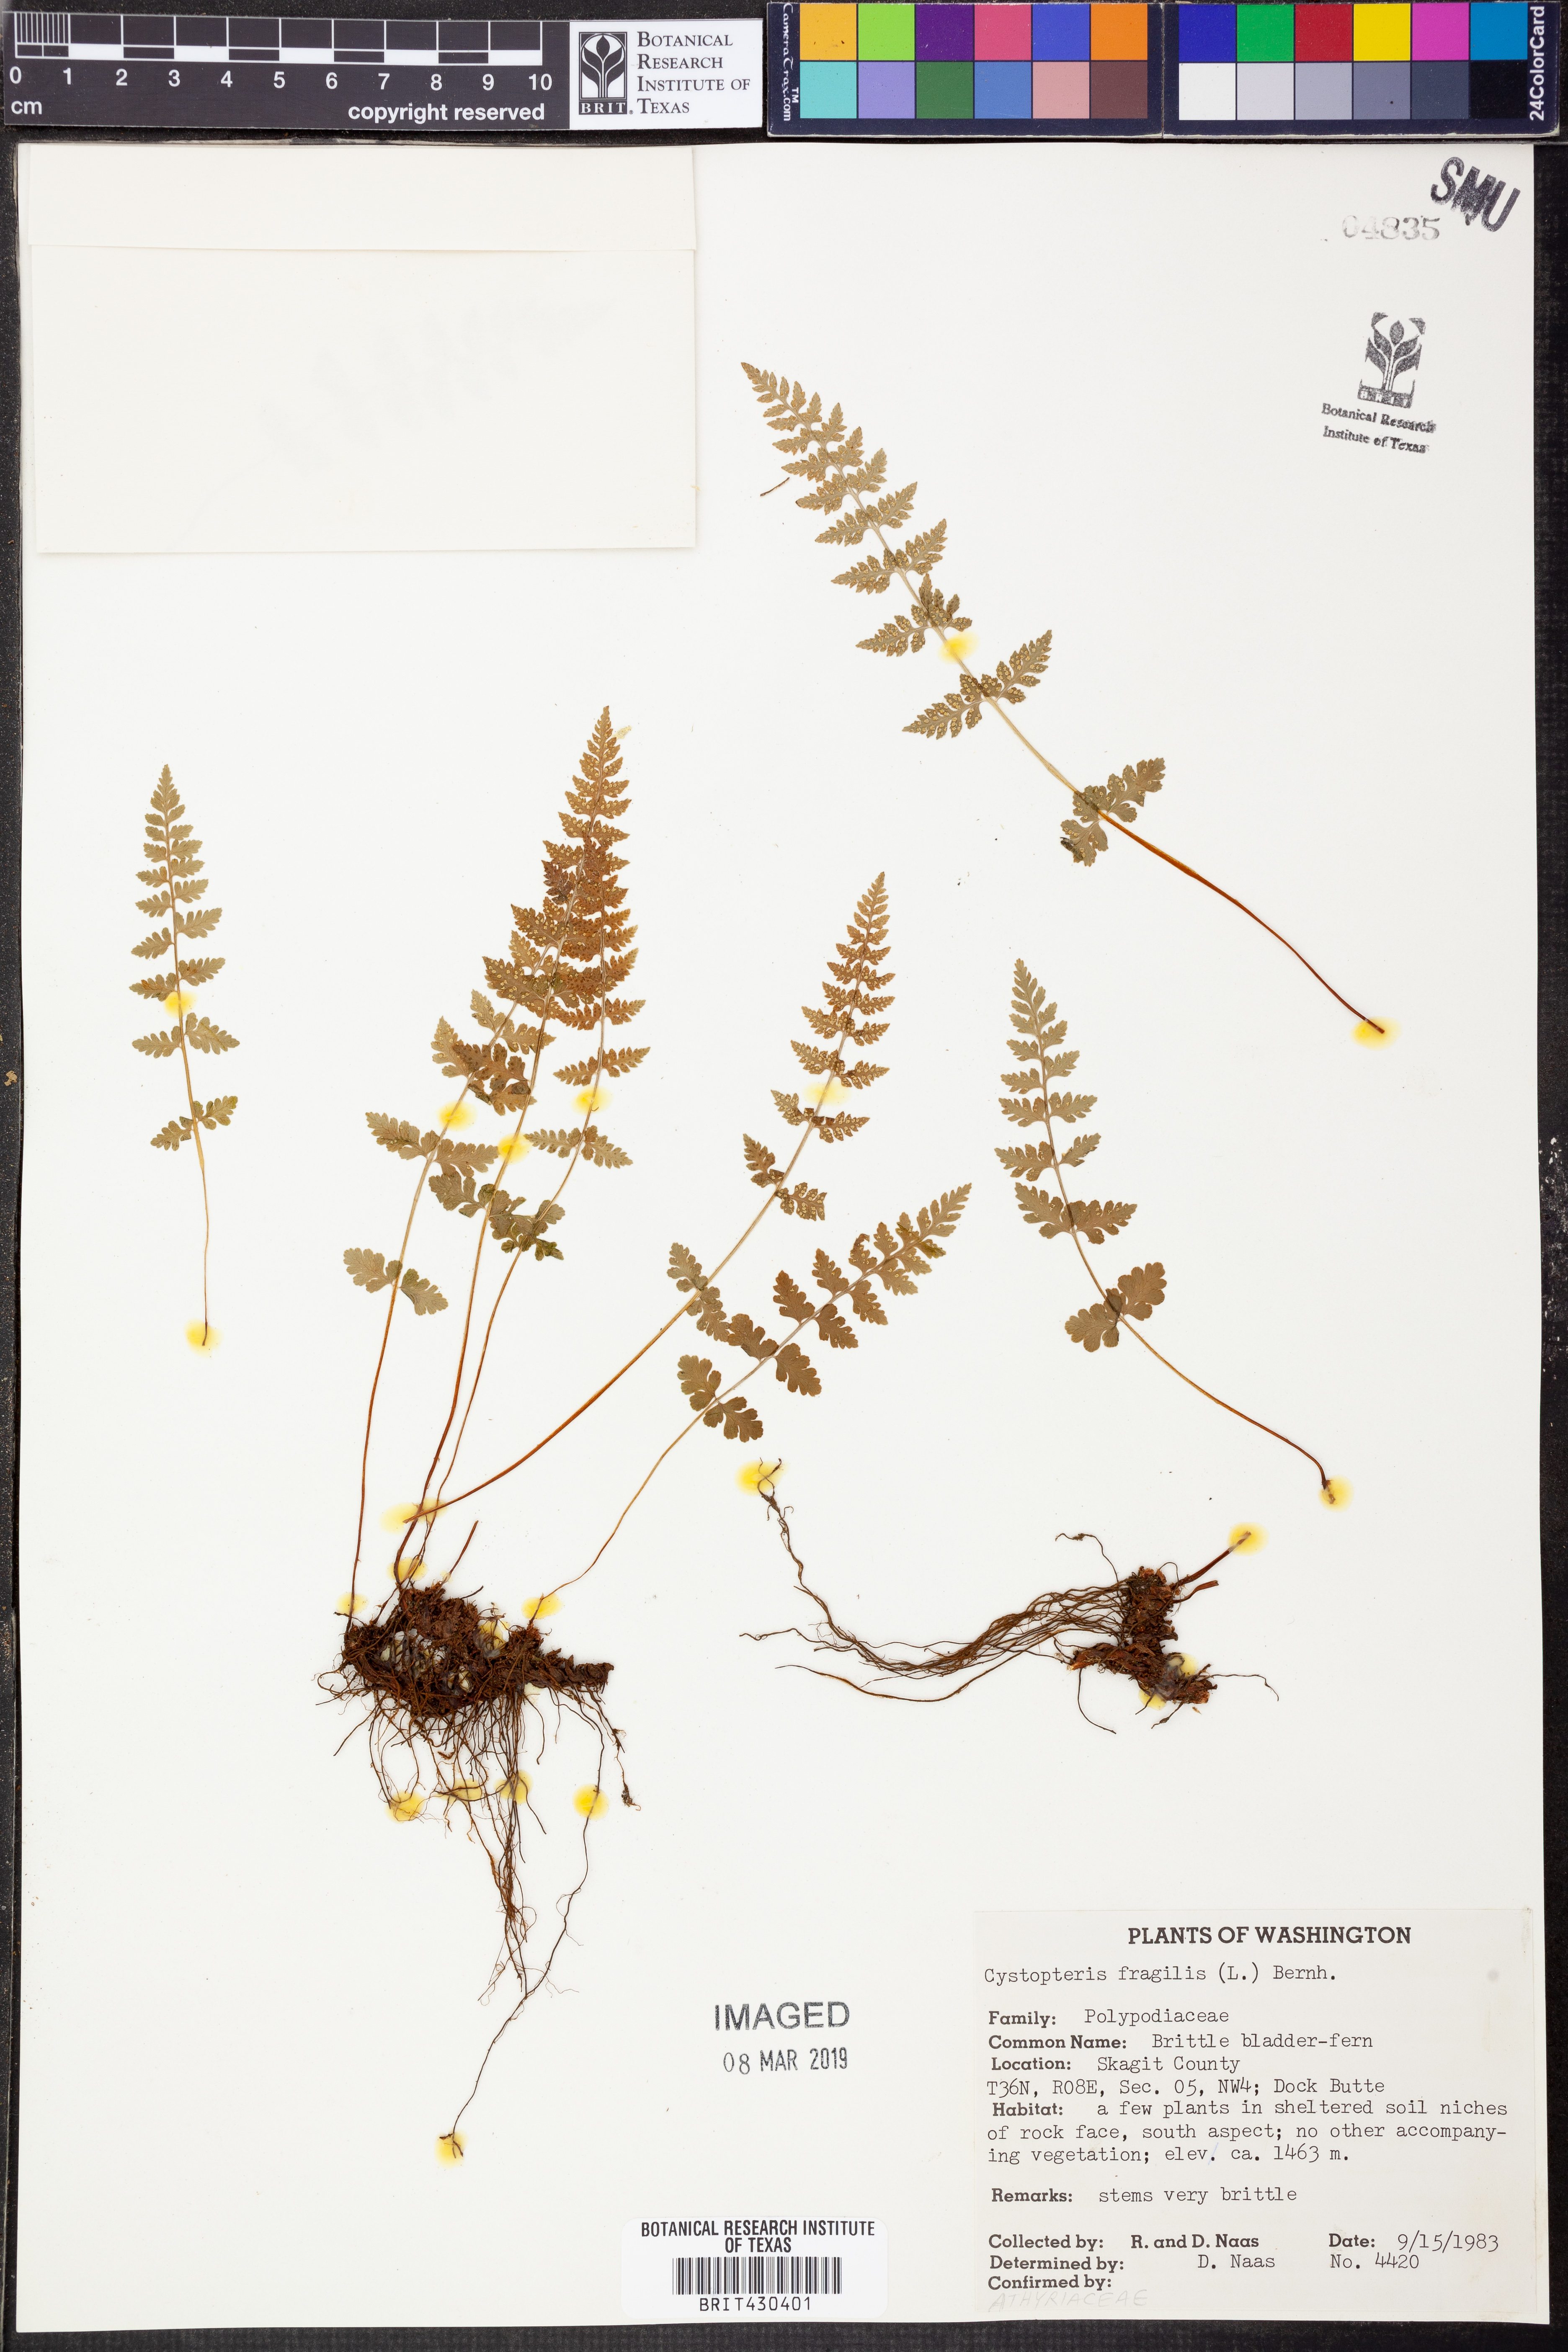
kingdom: Plantae
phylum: Tracheophyta
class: Polypodiopsida
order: Polypodiales
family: Cystopteridaceae
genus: Cystopteris
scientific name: Cystopteris fragilis
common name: Brittle bladder fern
